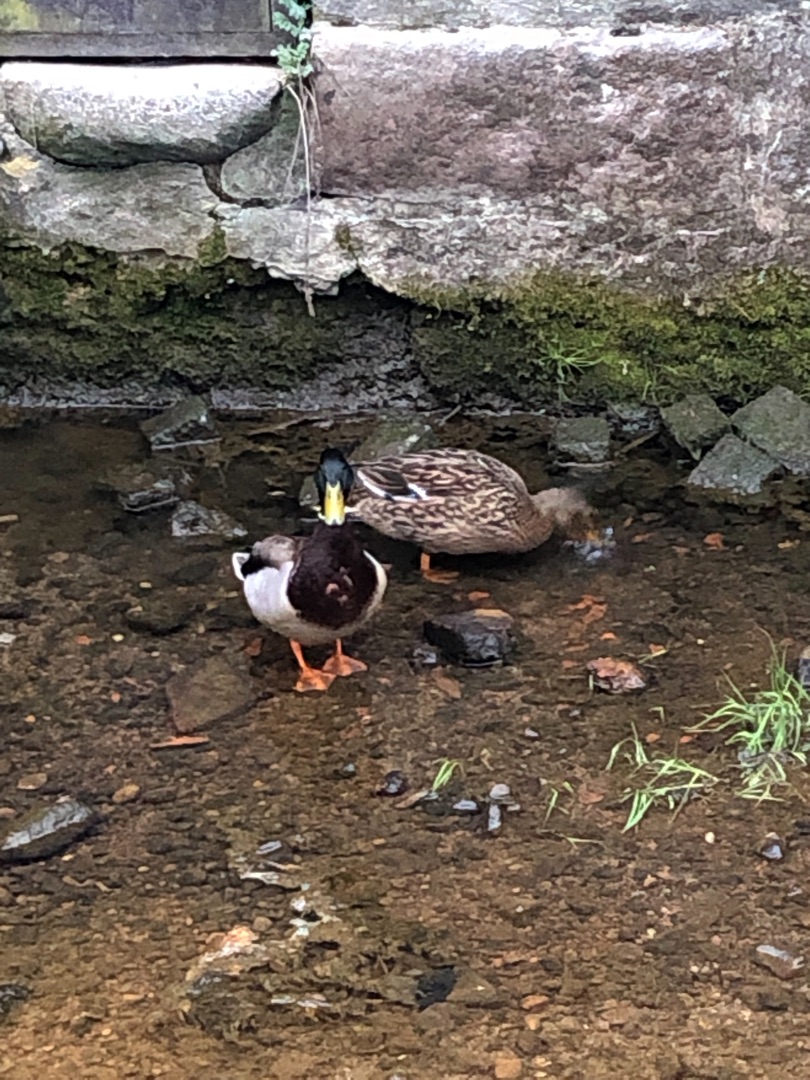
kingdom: Animalia
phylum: Chordata
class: Aves
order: Anseriformes
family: Anatidae
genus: Anas
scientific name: Anas platyrhynchos
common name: Gråand
